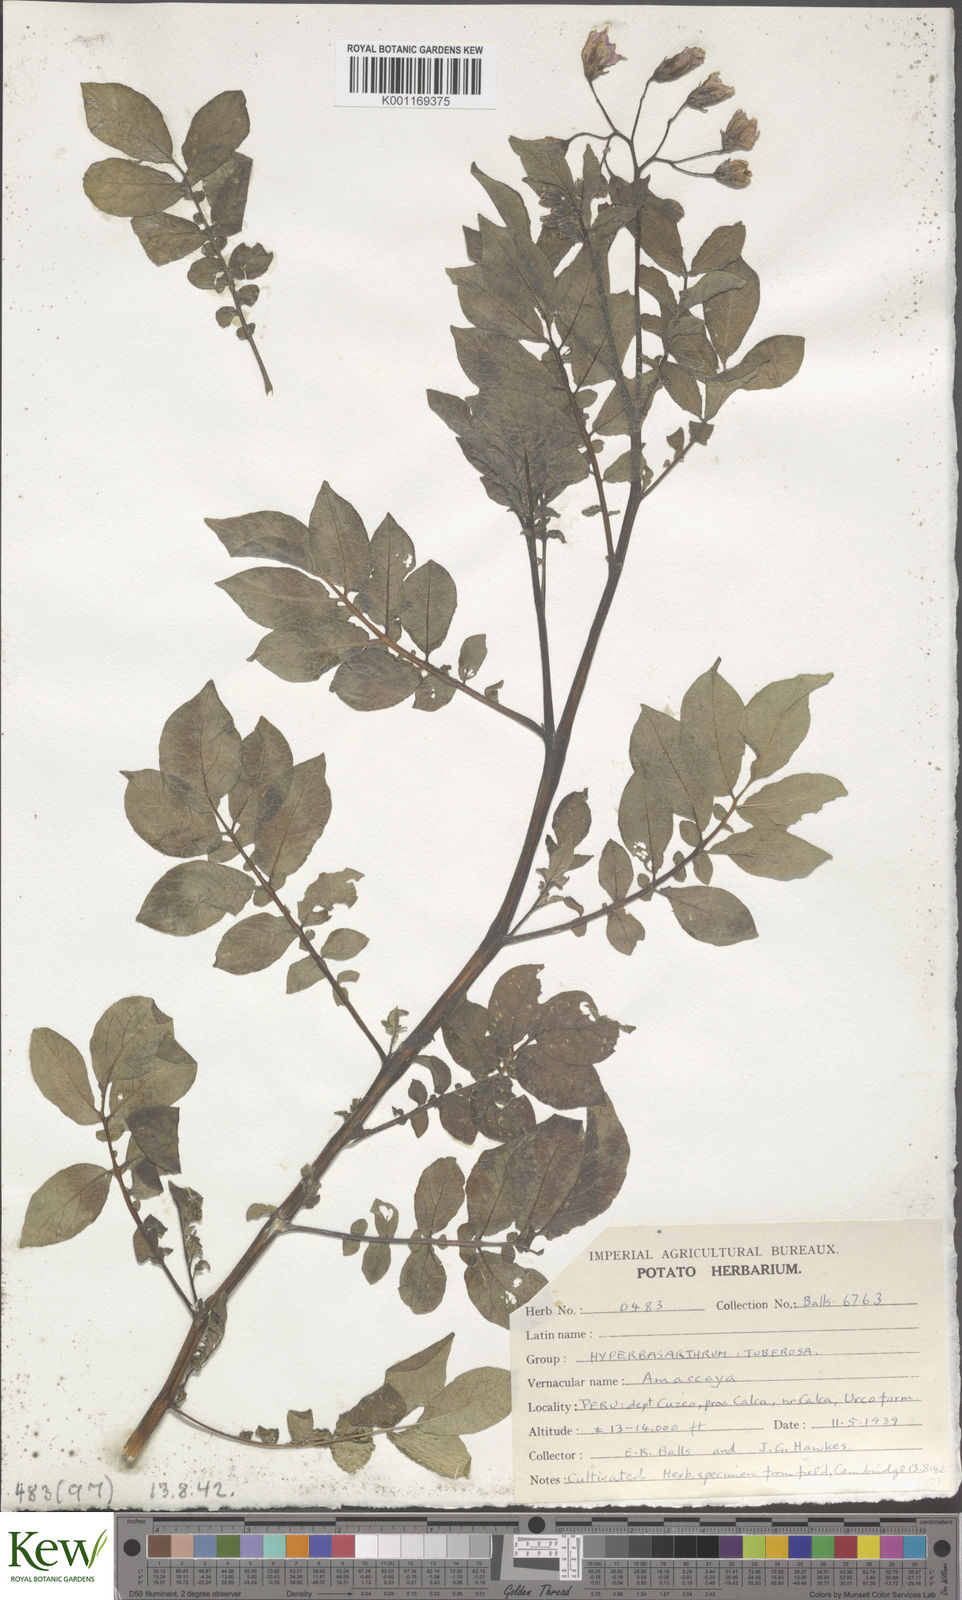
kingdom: Plantae
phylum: Tracheophyta
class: Magnoliopsida
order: Solanales
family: Solanaceae
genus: Solanum
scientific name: Solanum chaucha
